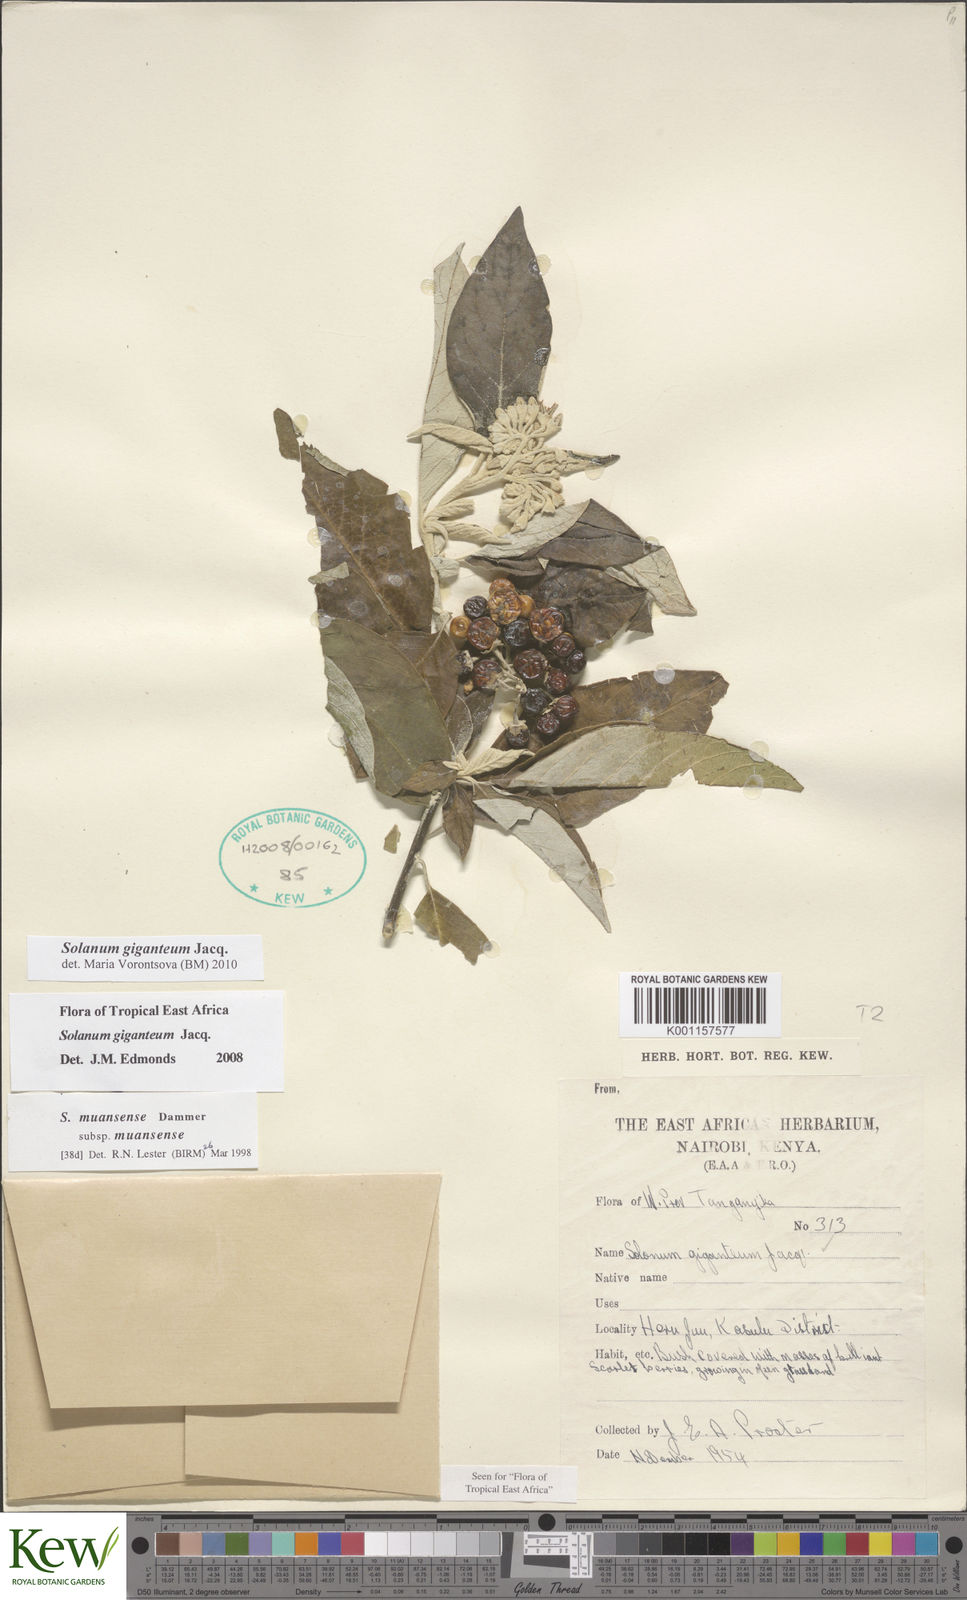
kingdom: Plantae
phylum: Tracheophyta
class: Magnoliopsida
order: Solanales
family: Solanaceae
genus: Solanum
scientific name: Solanum giganteum
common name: Healing-leaf-tree
